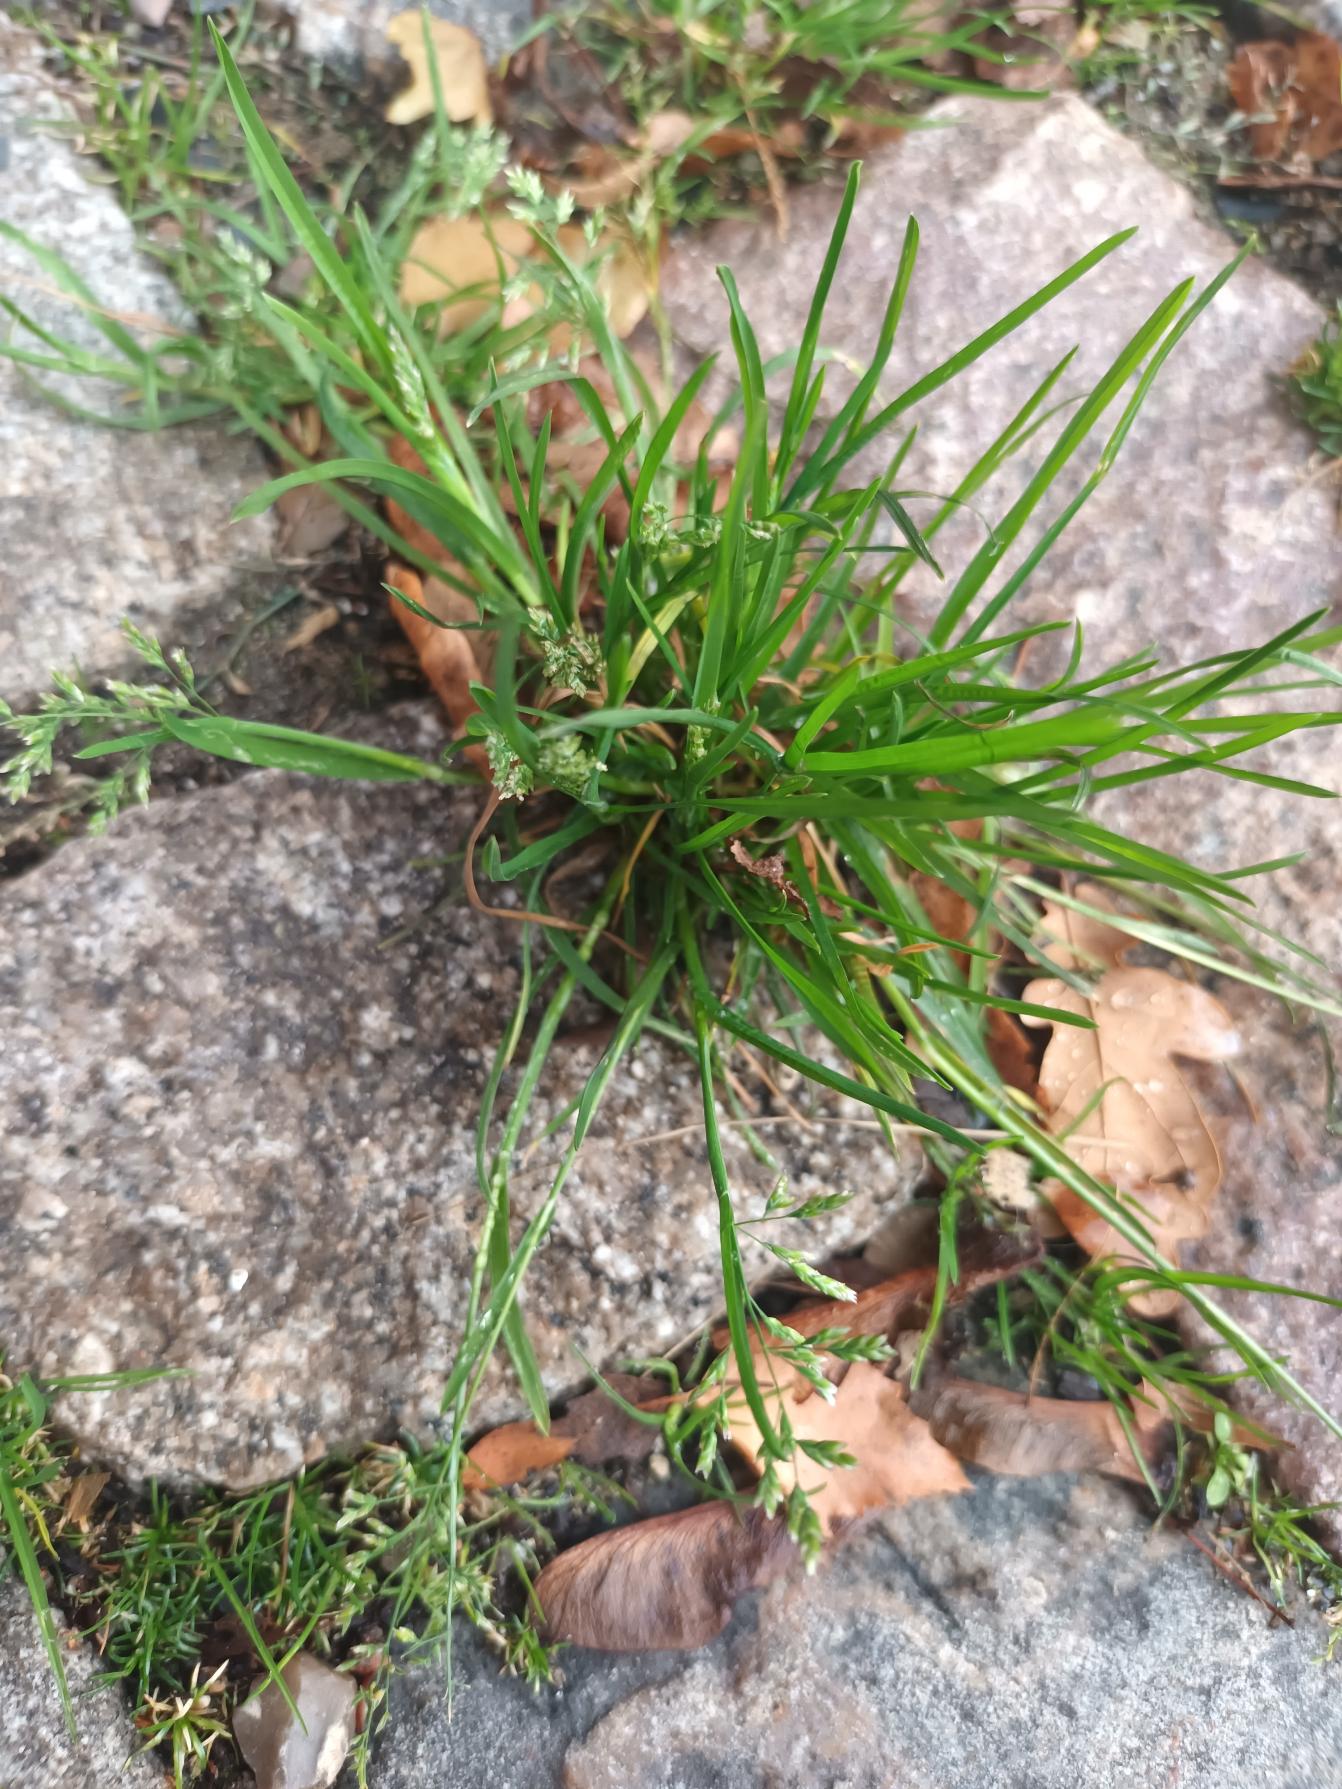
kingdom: Plantae
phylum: Tracheophyta
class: Liliopsida
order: Poales
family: Poaceae
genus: Poa
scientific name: Poa annua
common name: Enårig rapgræs
